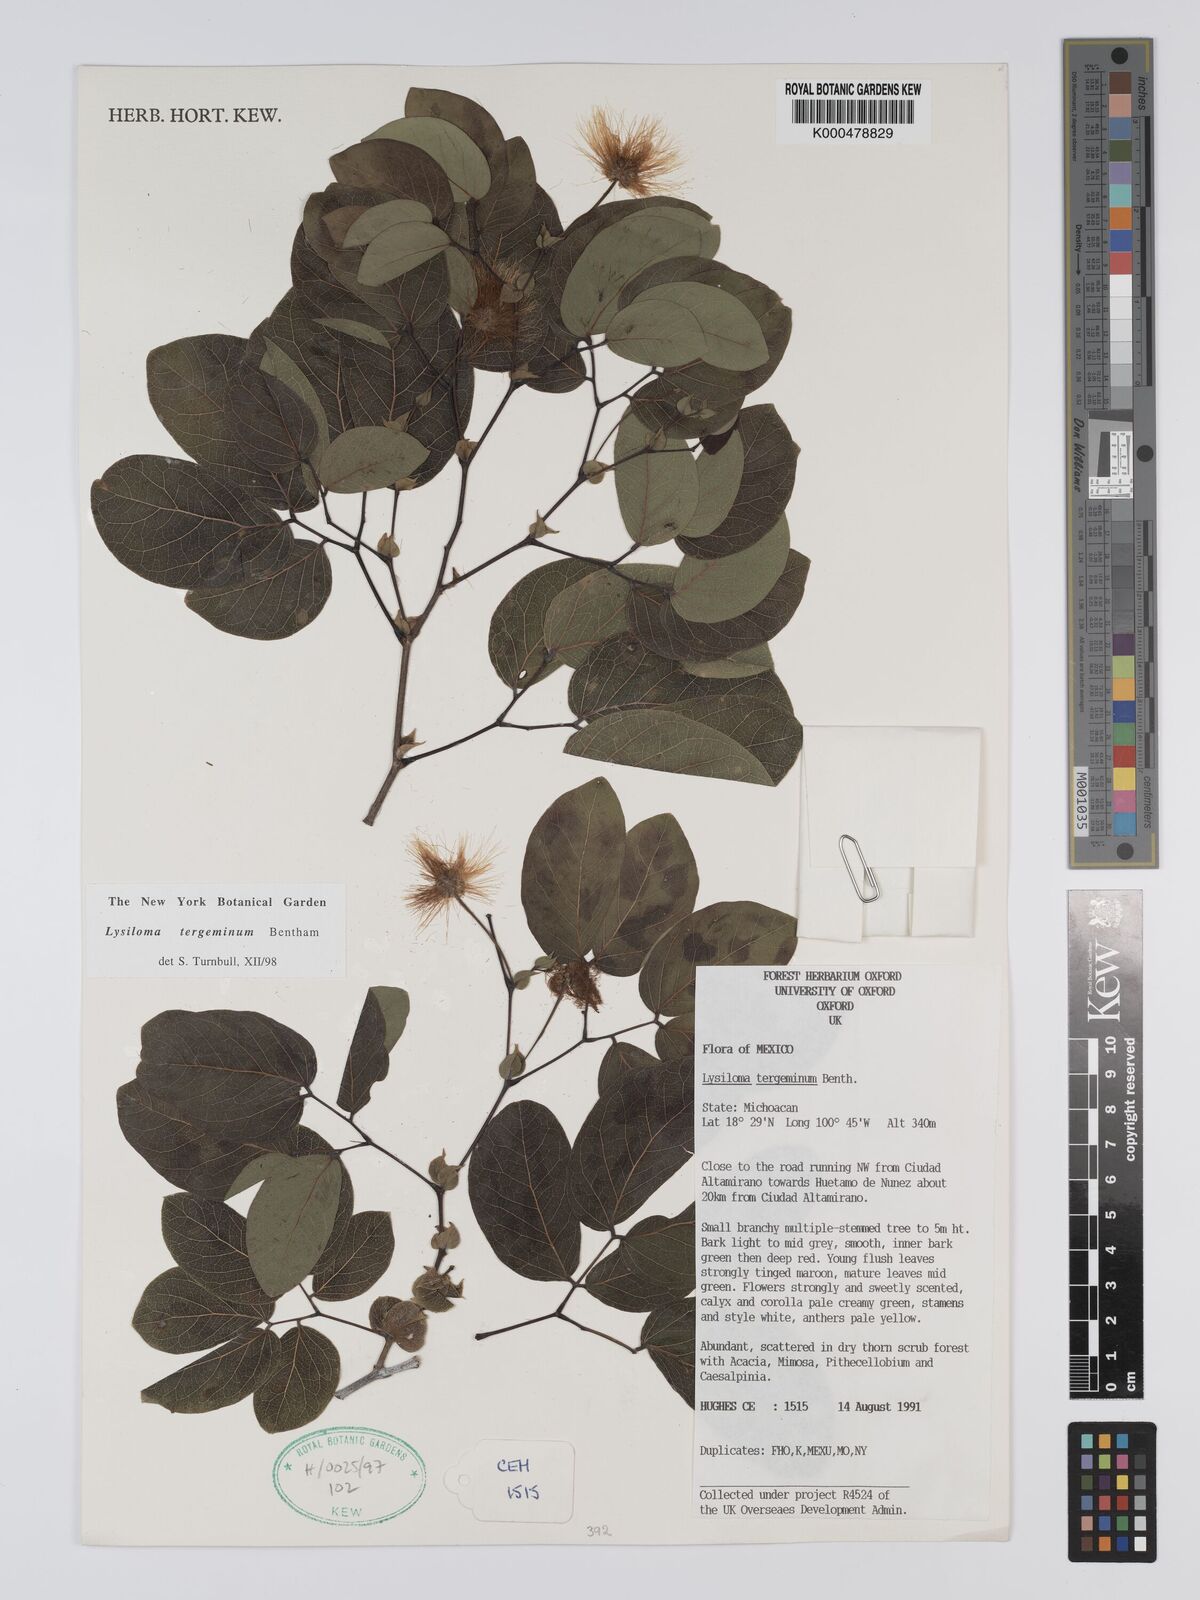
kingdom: Plantae
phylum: Tracheophyta
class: Magnoliopsida
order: Fabales
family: Fabaceae
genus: Lysiloma
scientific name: Lysiloma tergeminum
